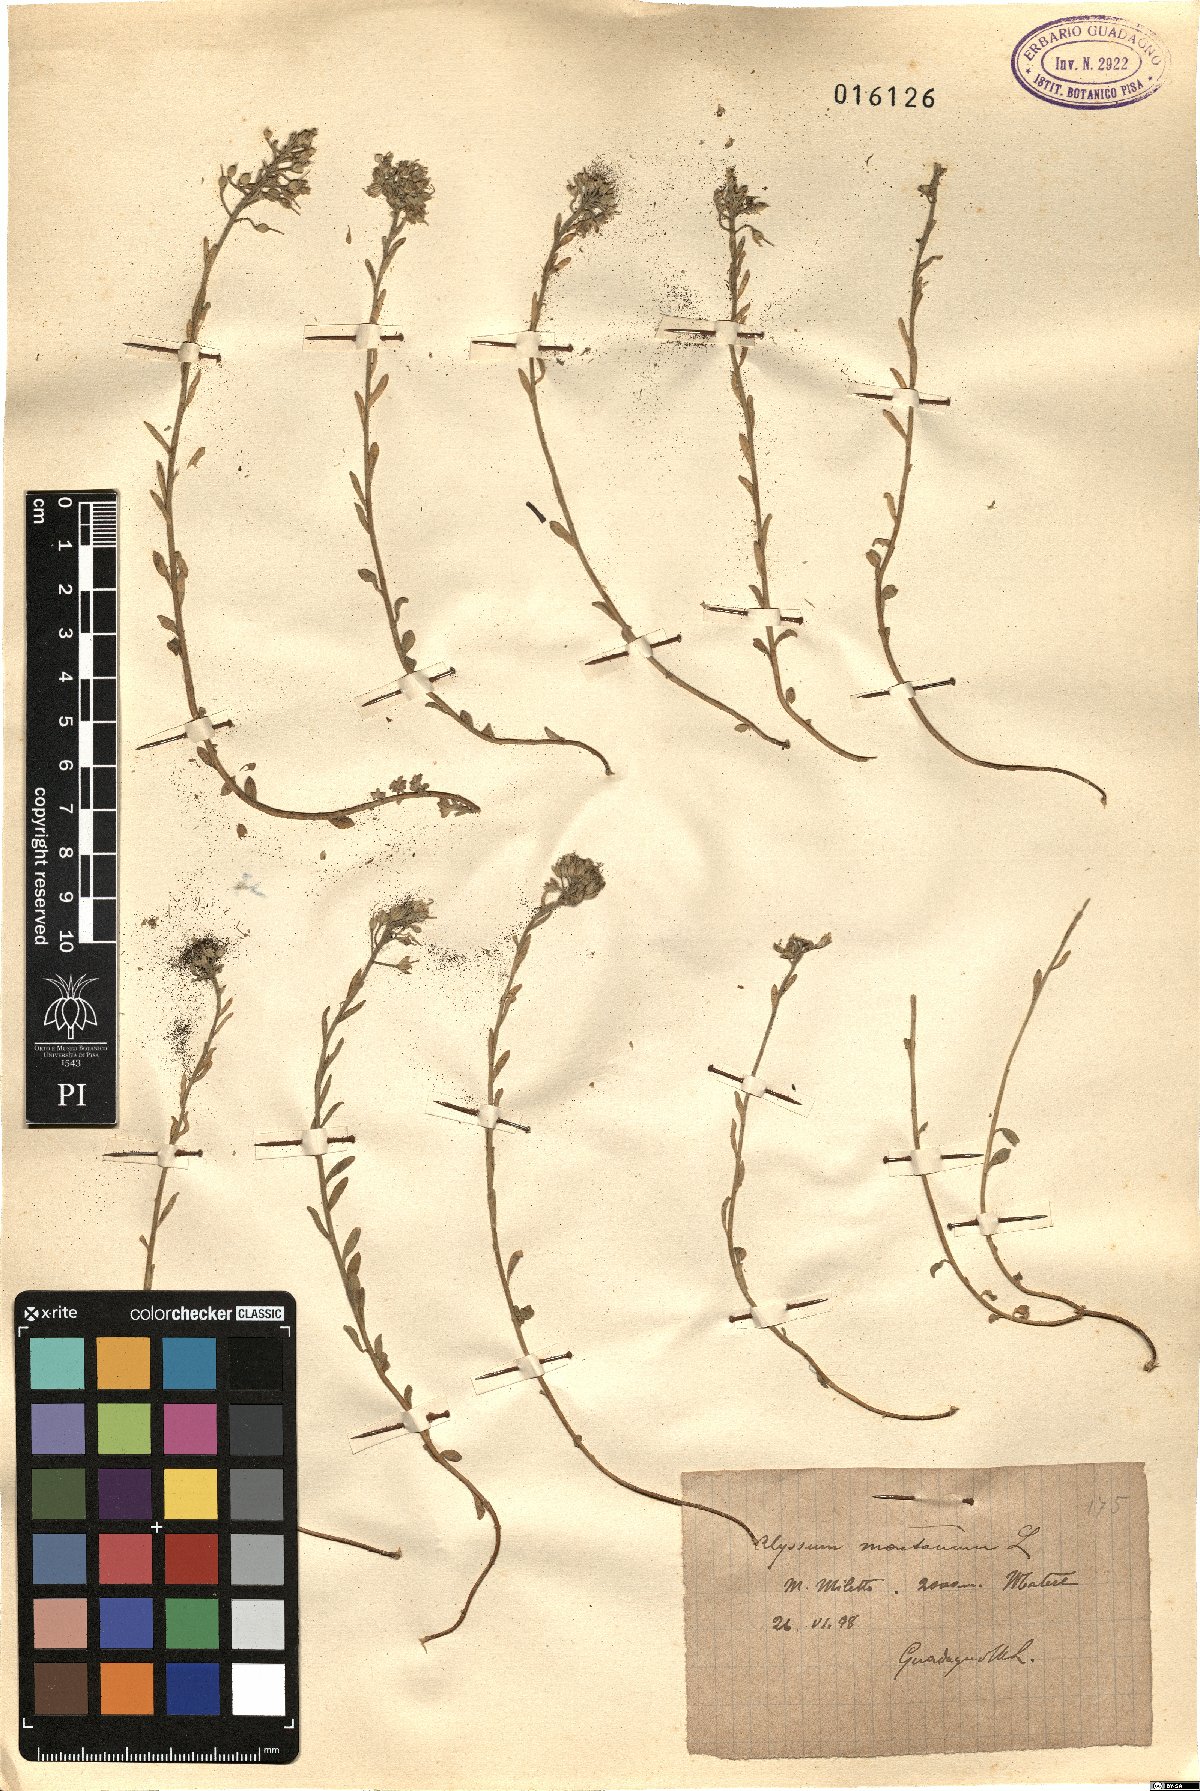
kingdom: Plantae
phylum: Tracheophyta
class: Magnoliopsida
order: Brassicales
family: Brassicaceae
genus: Alyssum
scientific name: Alyssum montanum
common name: Mountain alison
